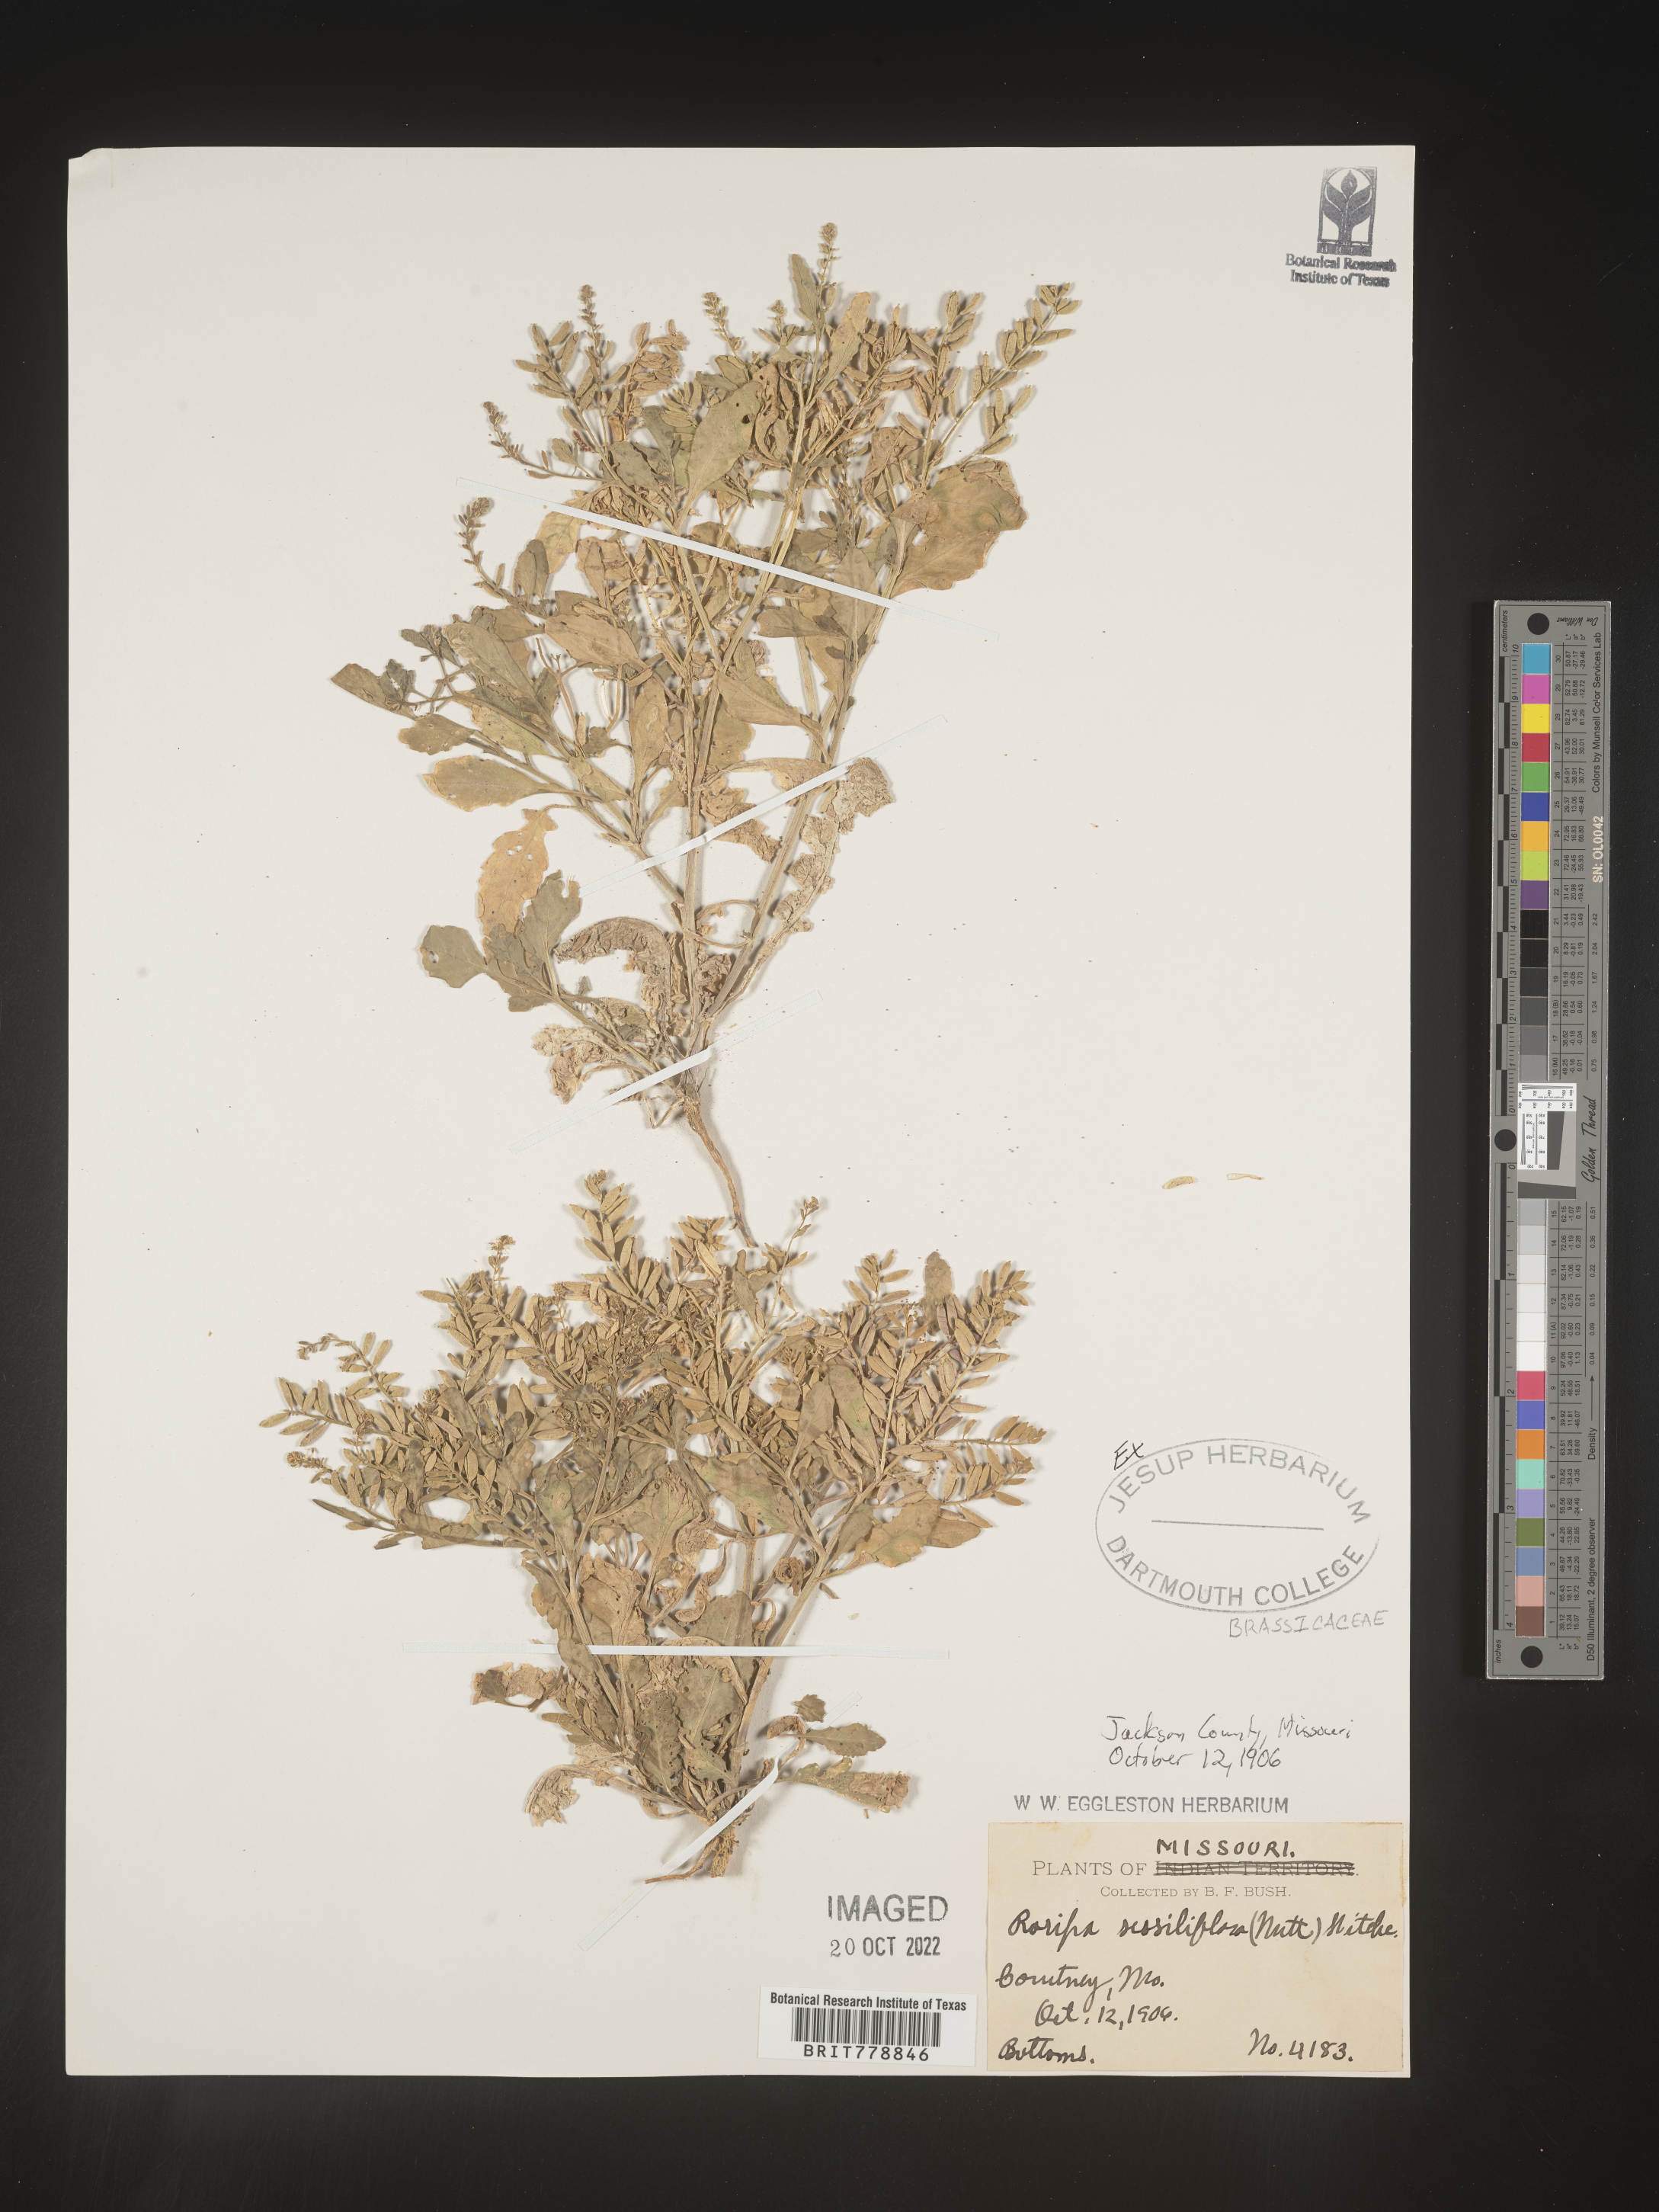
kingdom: Plantae
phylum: Tracheophyta
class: Magnoliopsida
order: Brassicales
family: Brassicaceae
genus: Rorippa
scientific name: Rorippa sessiliflora
